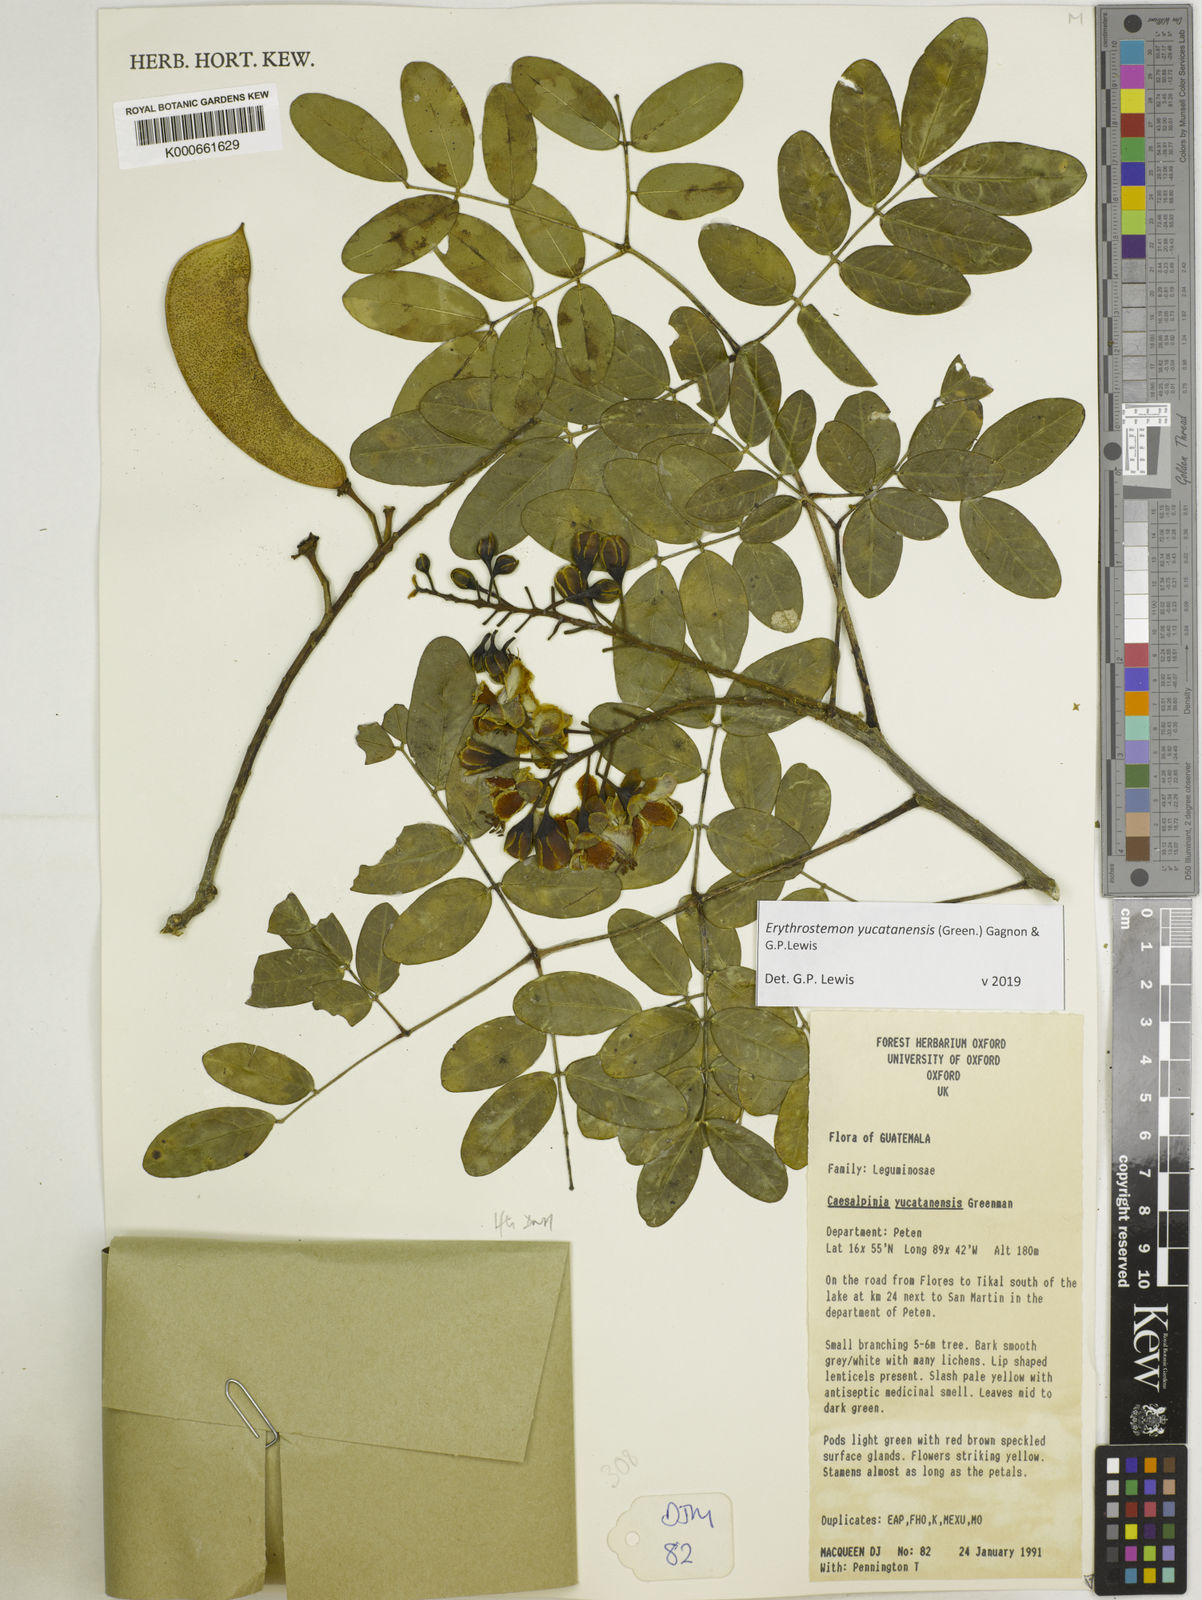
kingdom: Plantae
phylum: Tracheophyta
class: Magnoliopsida
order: Fabales
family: Fabaceae
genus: Caesalpinia
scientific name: Caesalpinia
